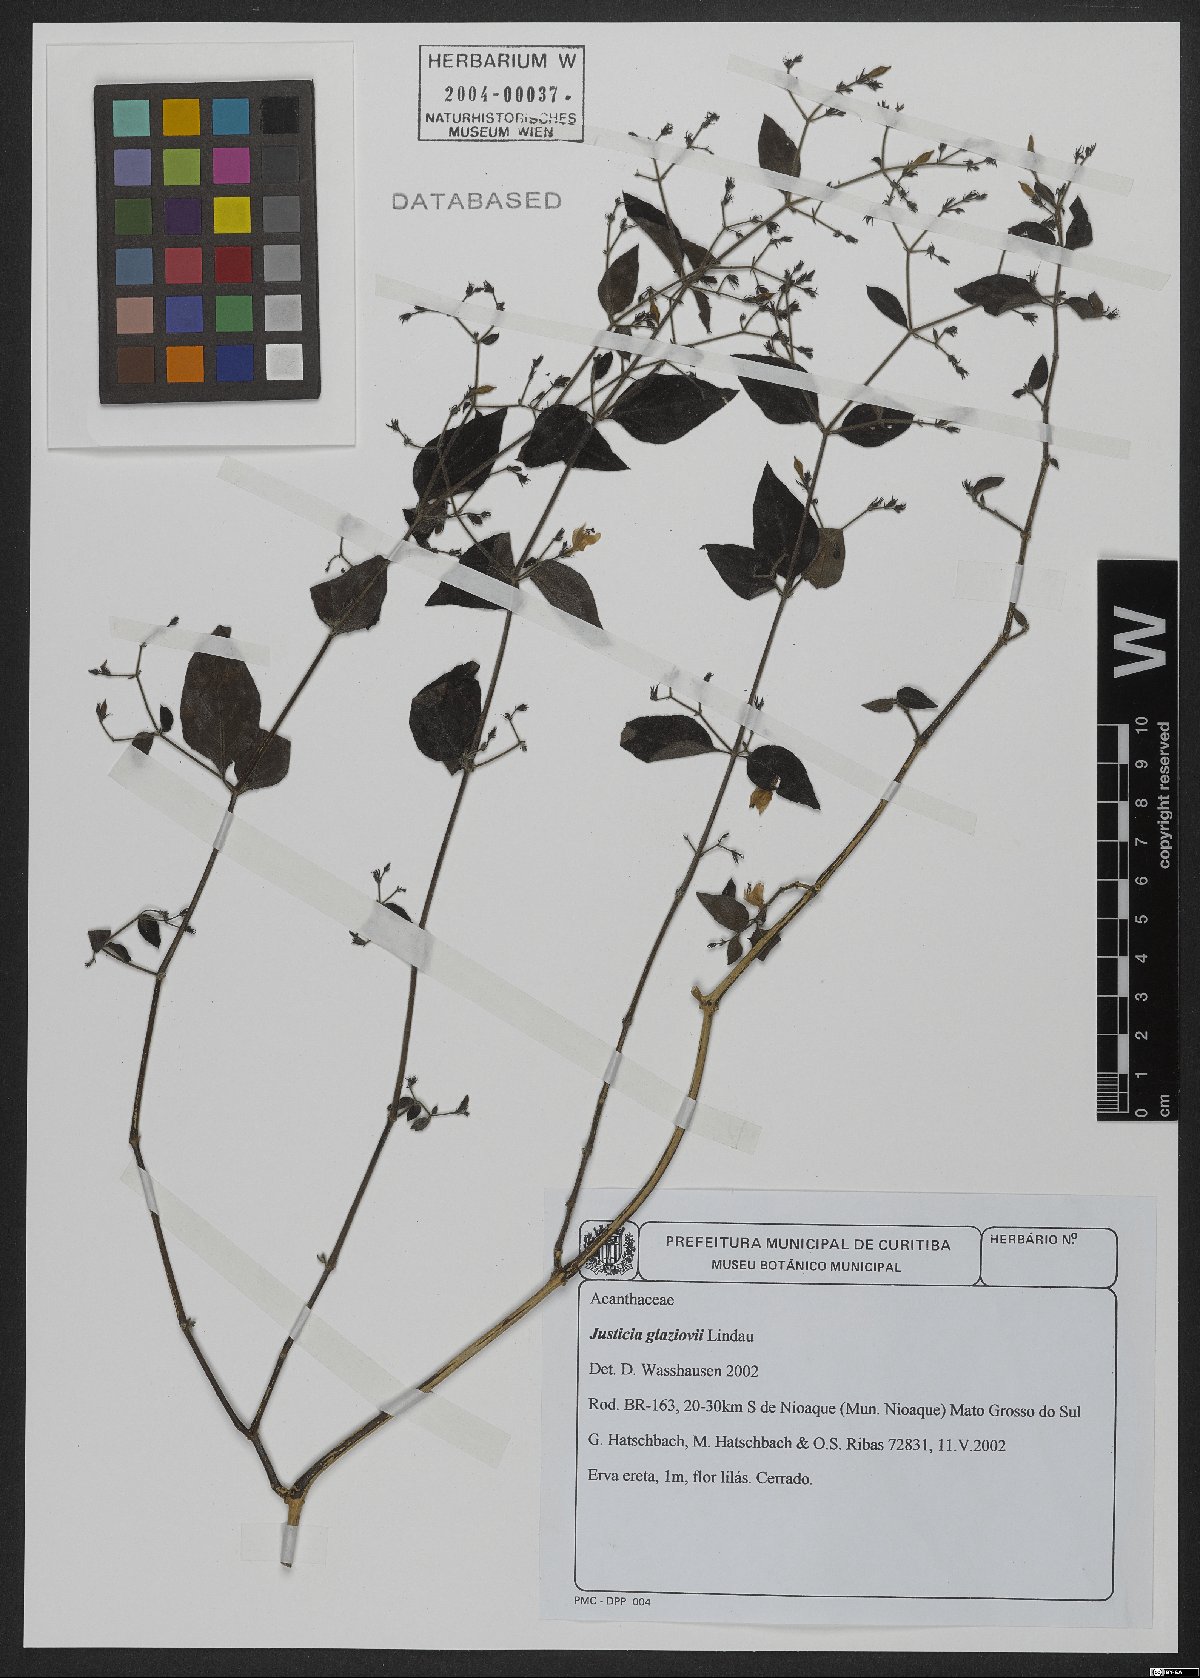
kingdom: Plantae
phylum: Tracheophyta
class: Magnoliopsida
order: Lamiales
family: Acanthaceae
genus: Justicia
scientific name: Justicia rubriflora
